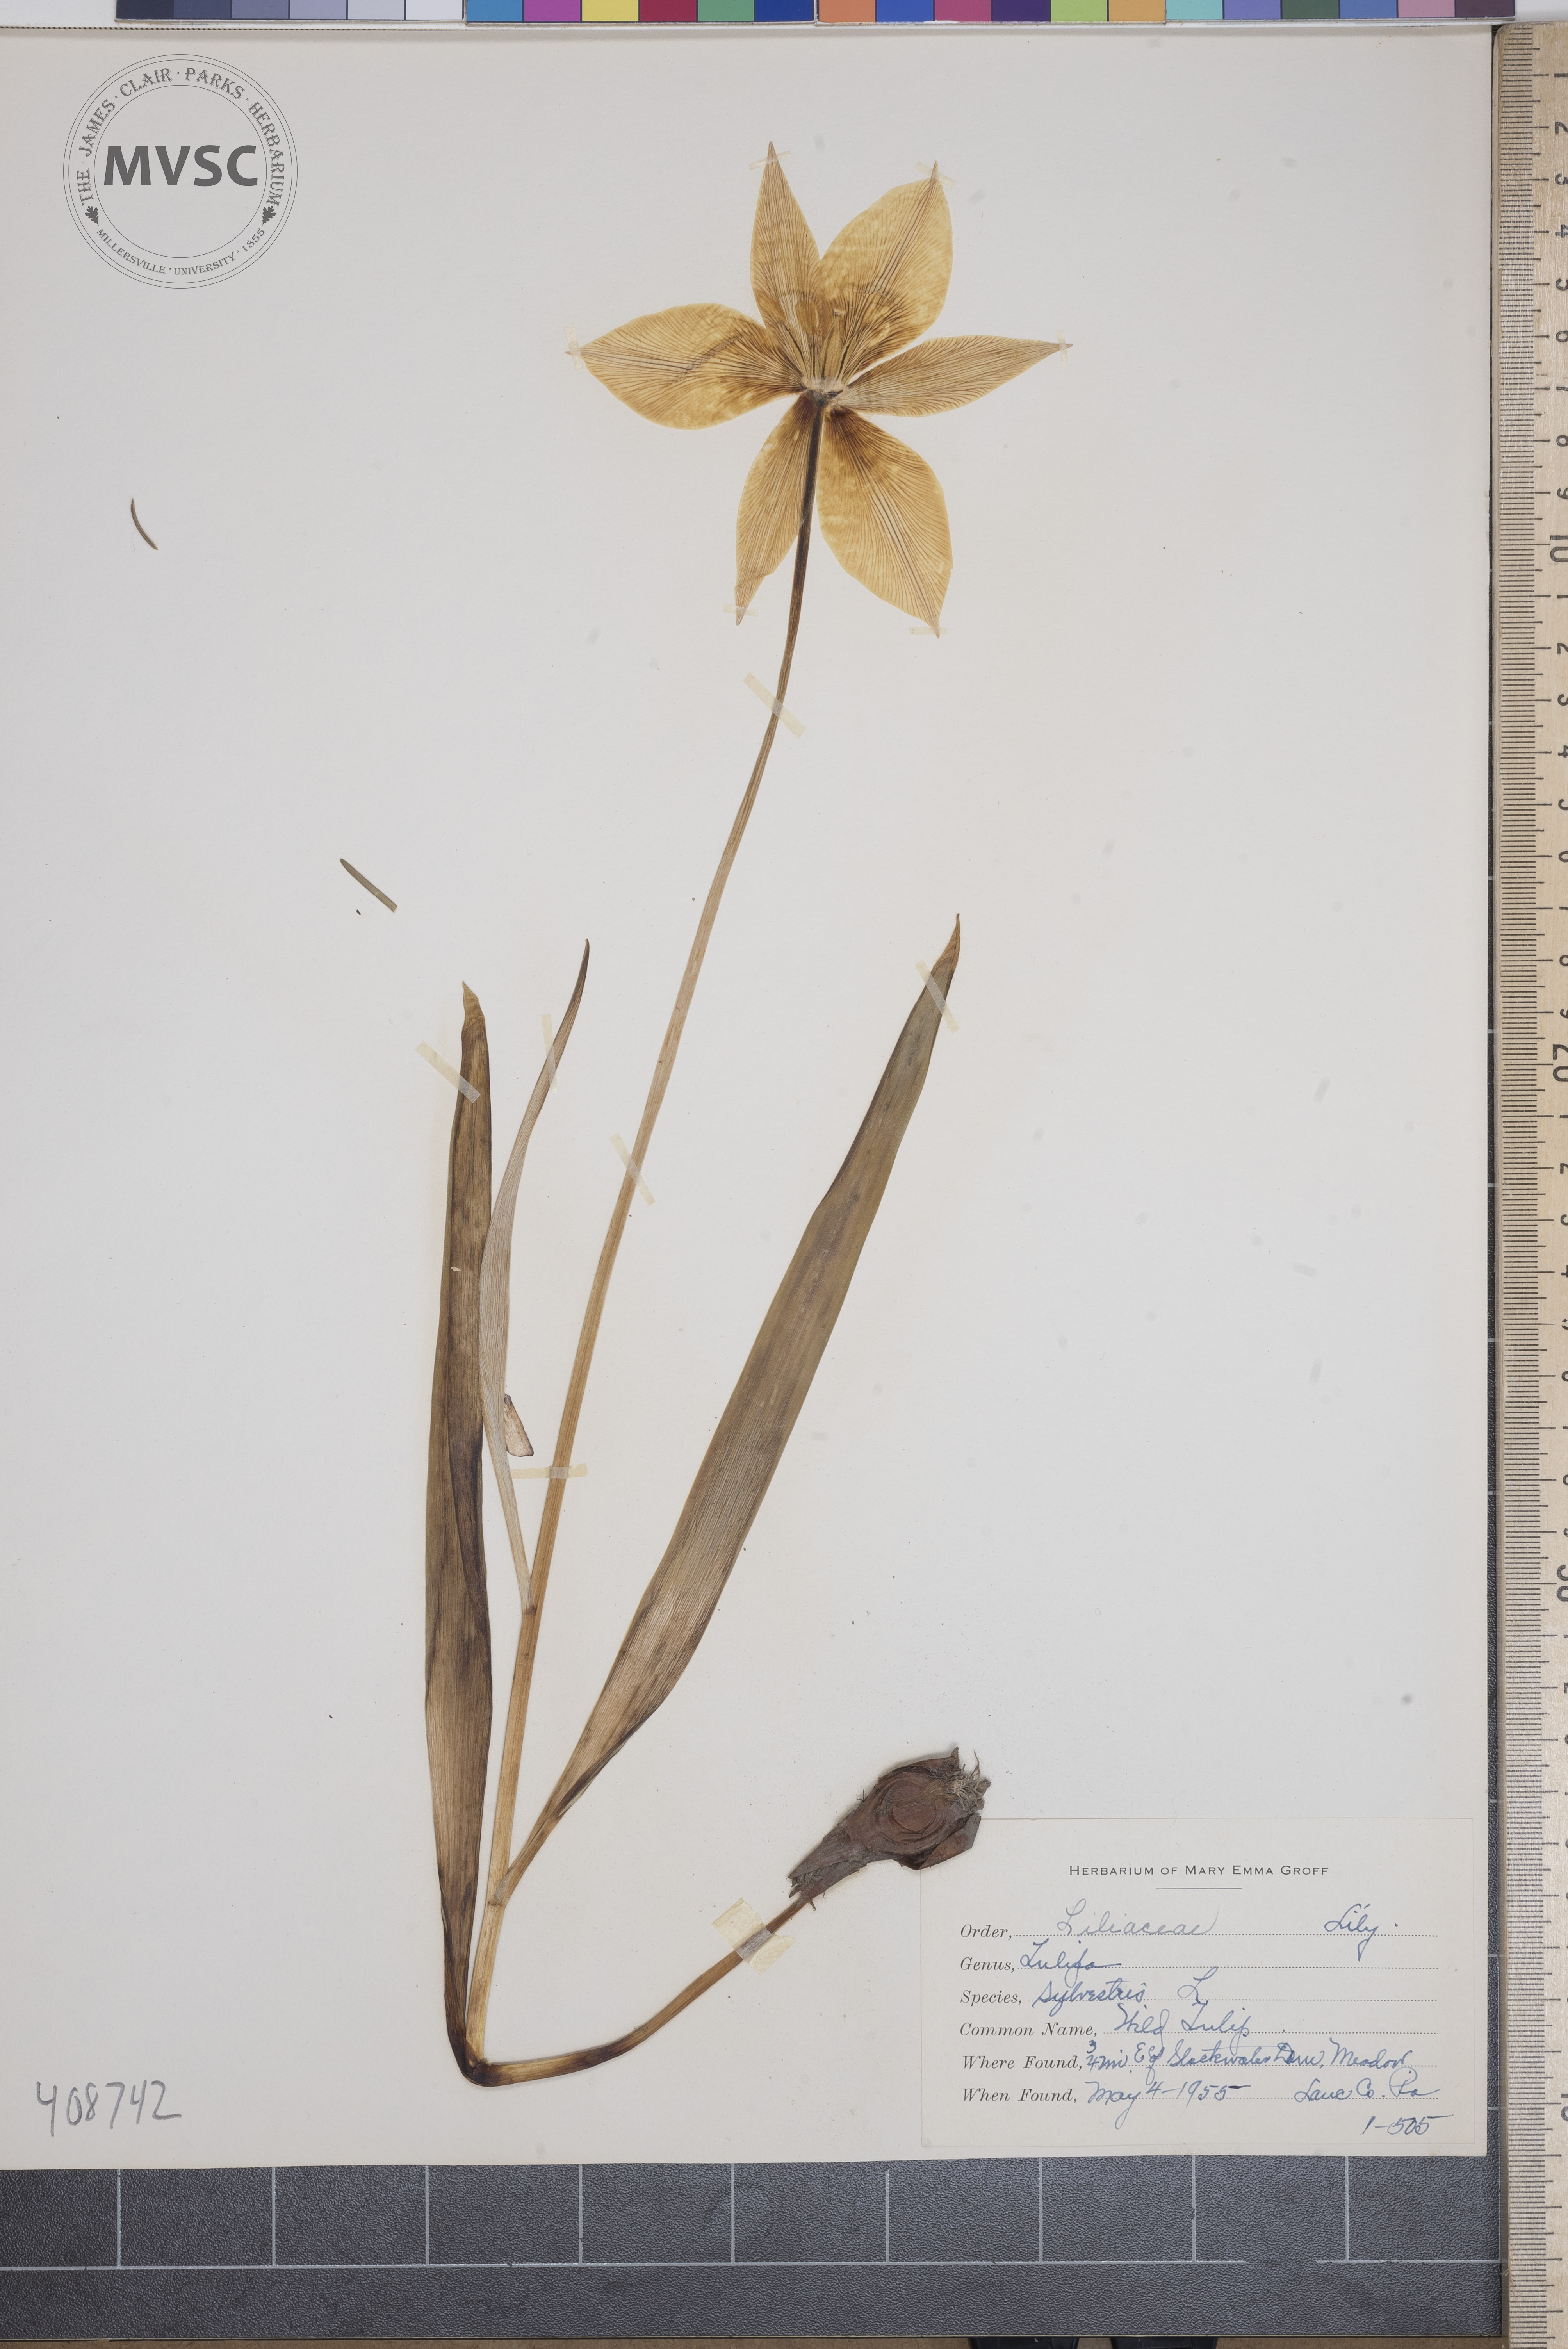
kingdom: Plantae
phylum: Tracheophyta
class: Liliopsida
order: Liliales
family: Liliaceae
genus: Tulipa
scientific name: Tulipa sylvestris
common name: Wild Tulip
